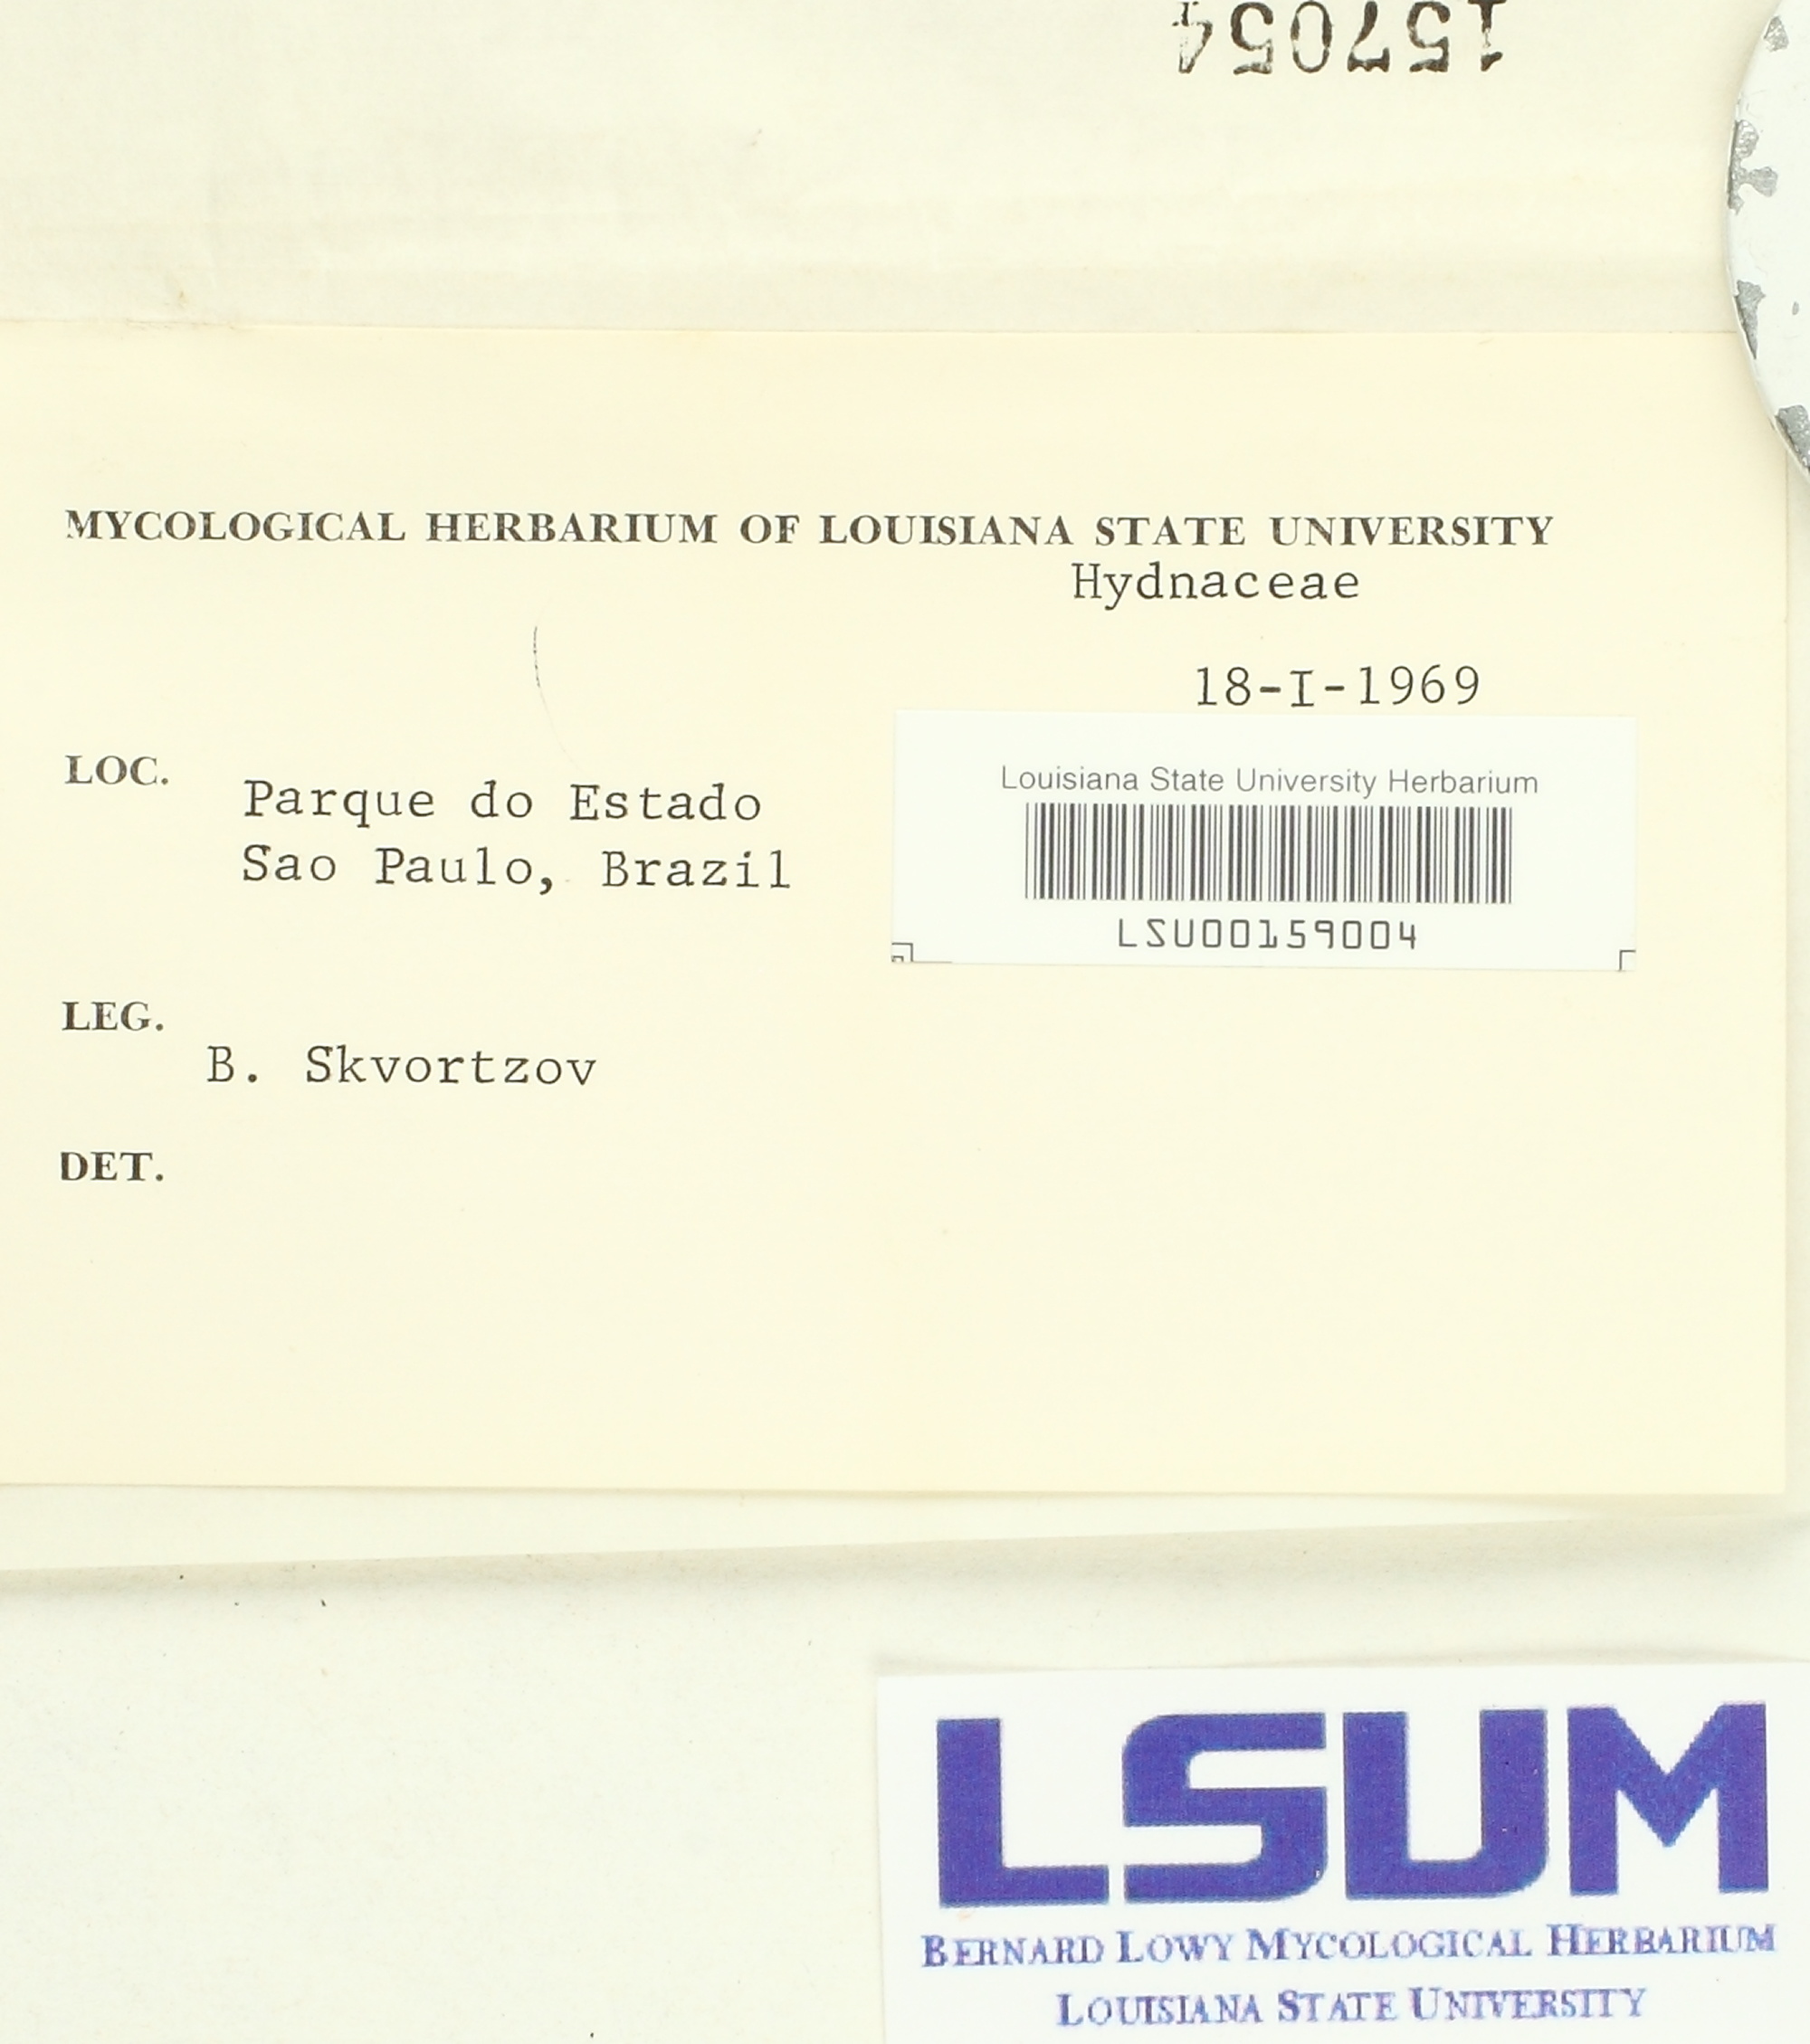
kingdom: Fungi
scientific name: Fungi
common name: Fungi
